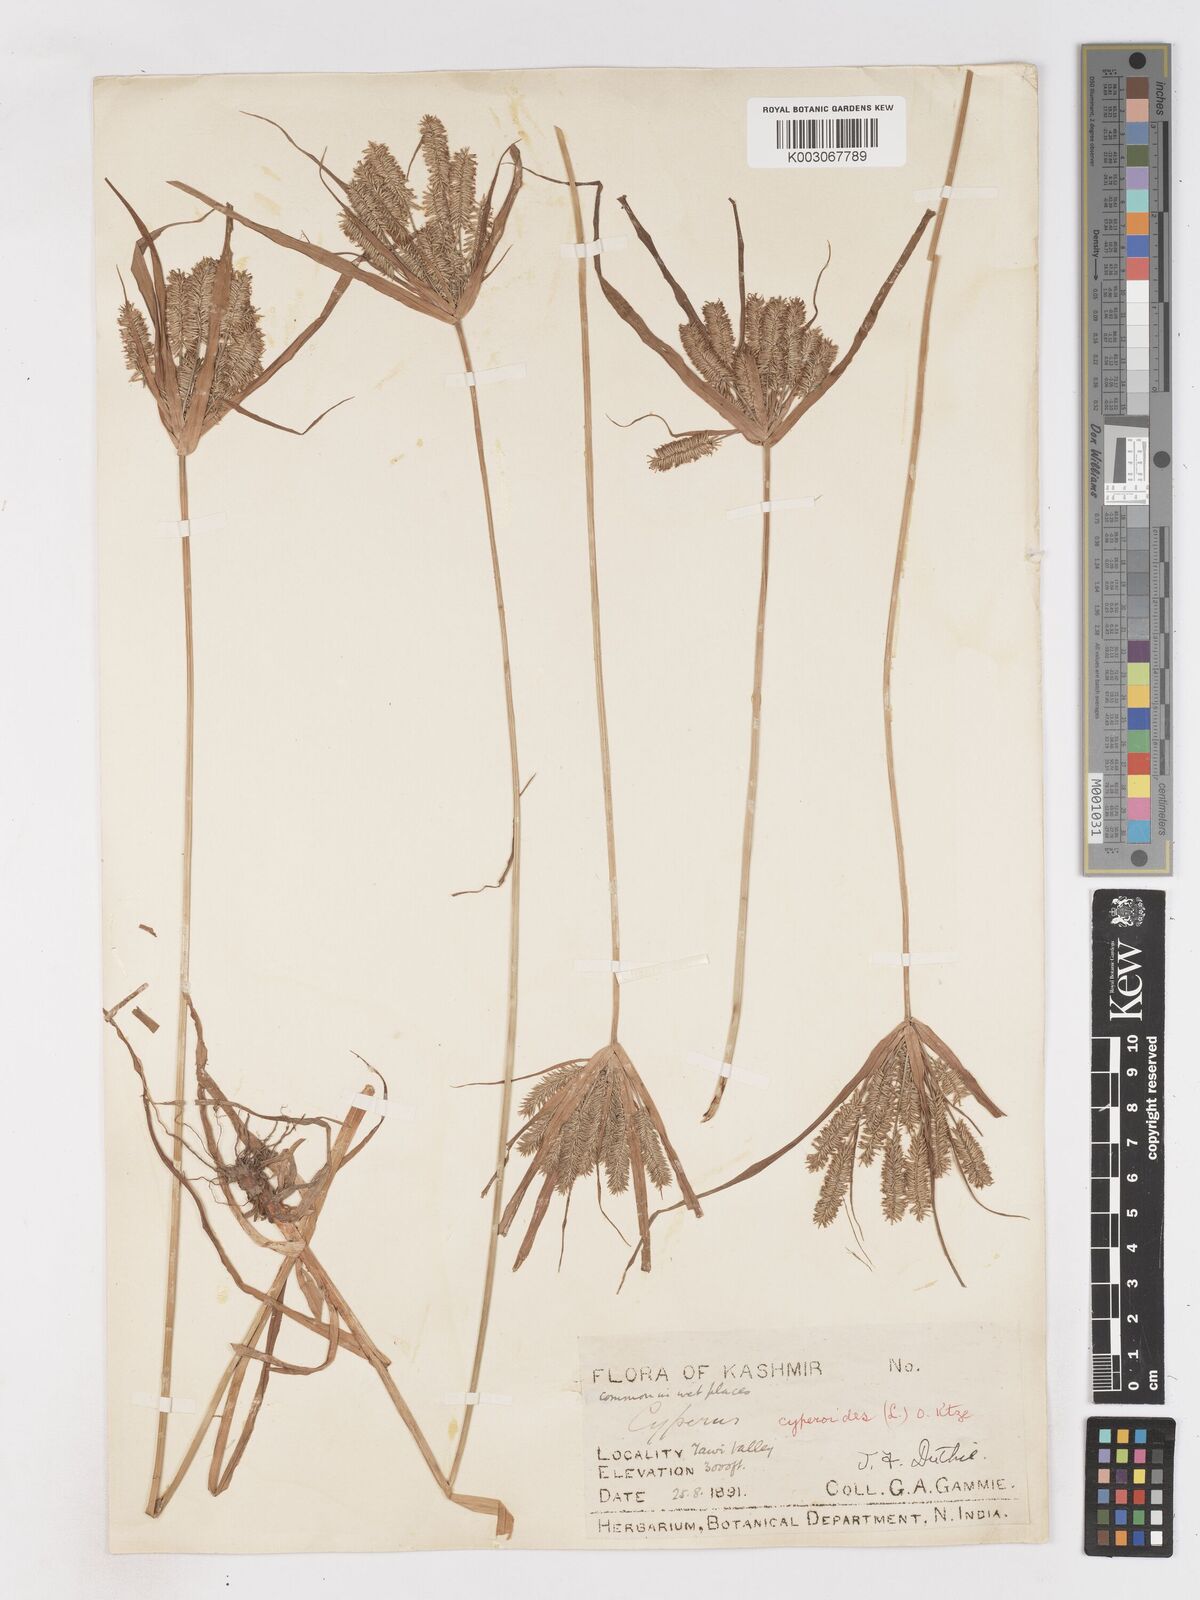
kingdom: Plantae
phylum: Tracheophyta
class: Liliopsida
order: Poales
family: Cyperaceae
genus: Cyperus
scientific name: Cyperus cyperoides
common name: Pacific island flat sedge
